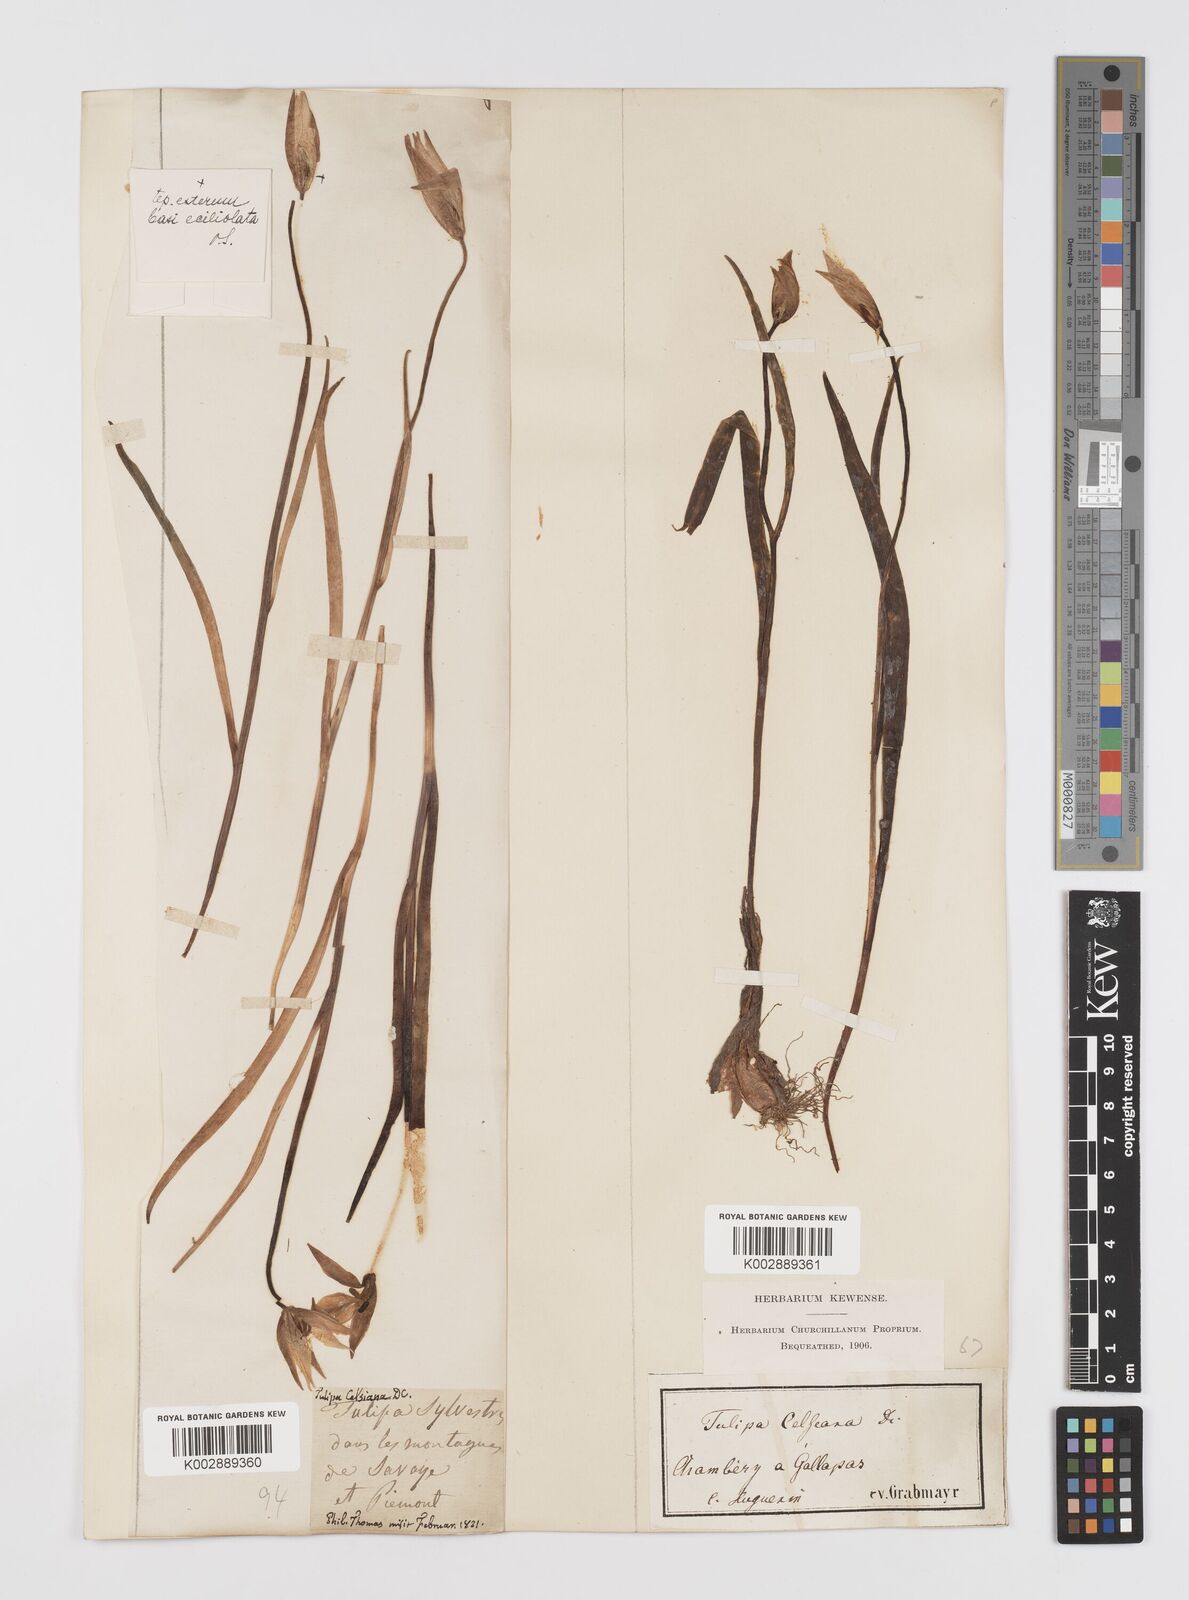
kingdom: Plantae
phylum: Tracheophyta
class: Liliopsida
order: Liliales
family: Liliaceae
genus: Tulipa
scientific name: Tulipa sylvestris
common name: Wild tulip
